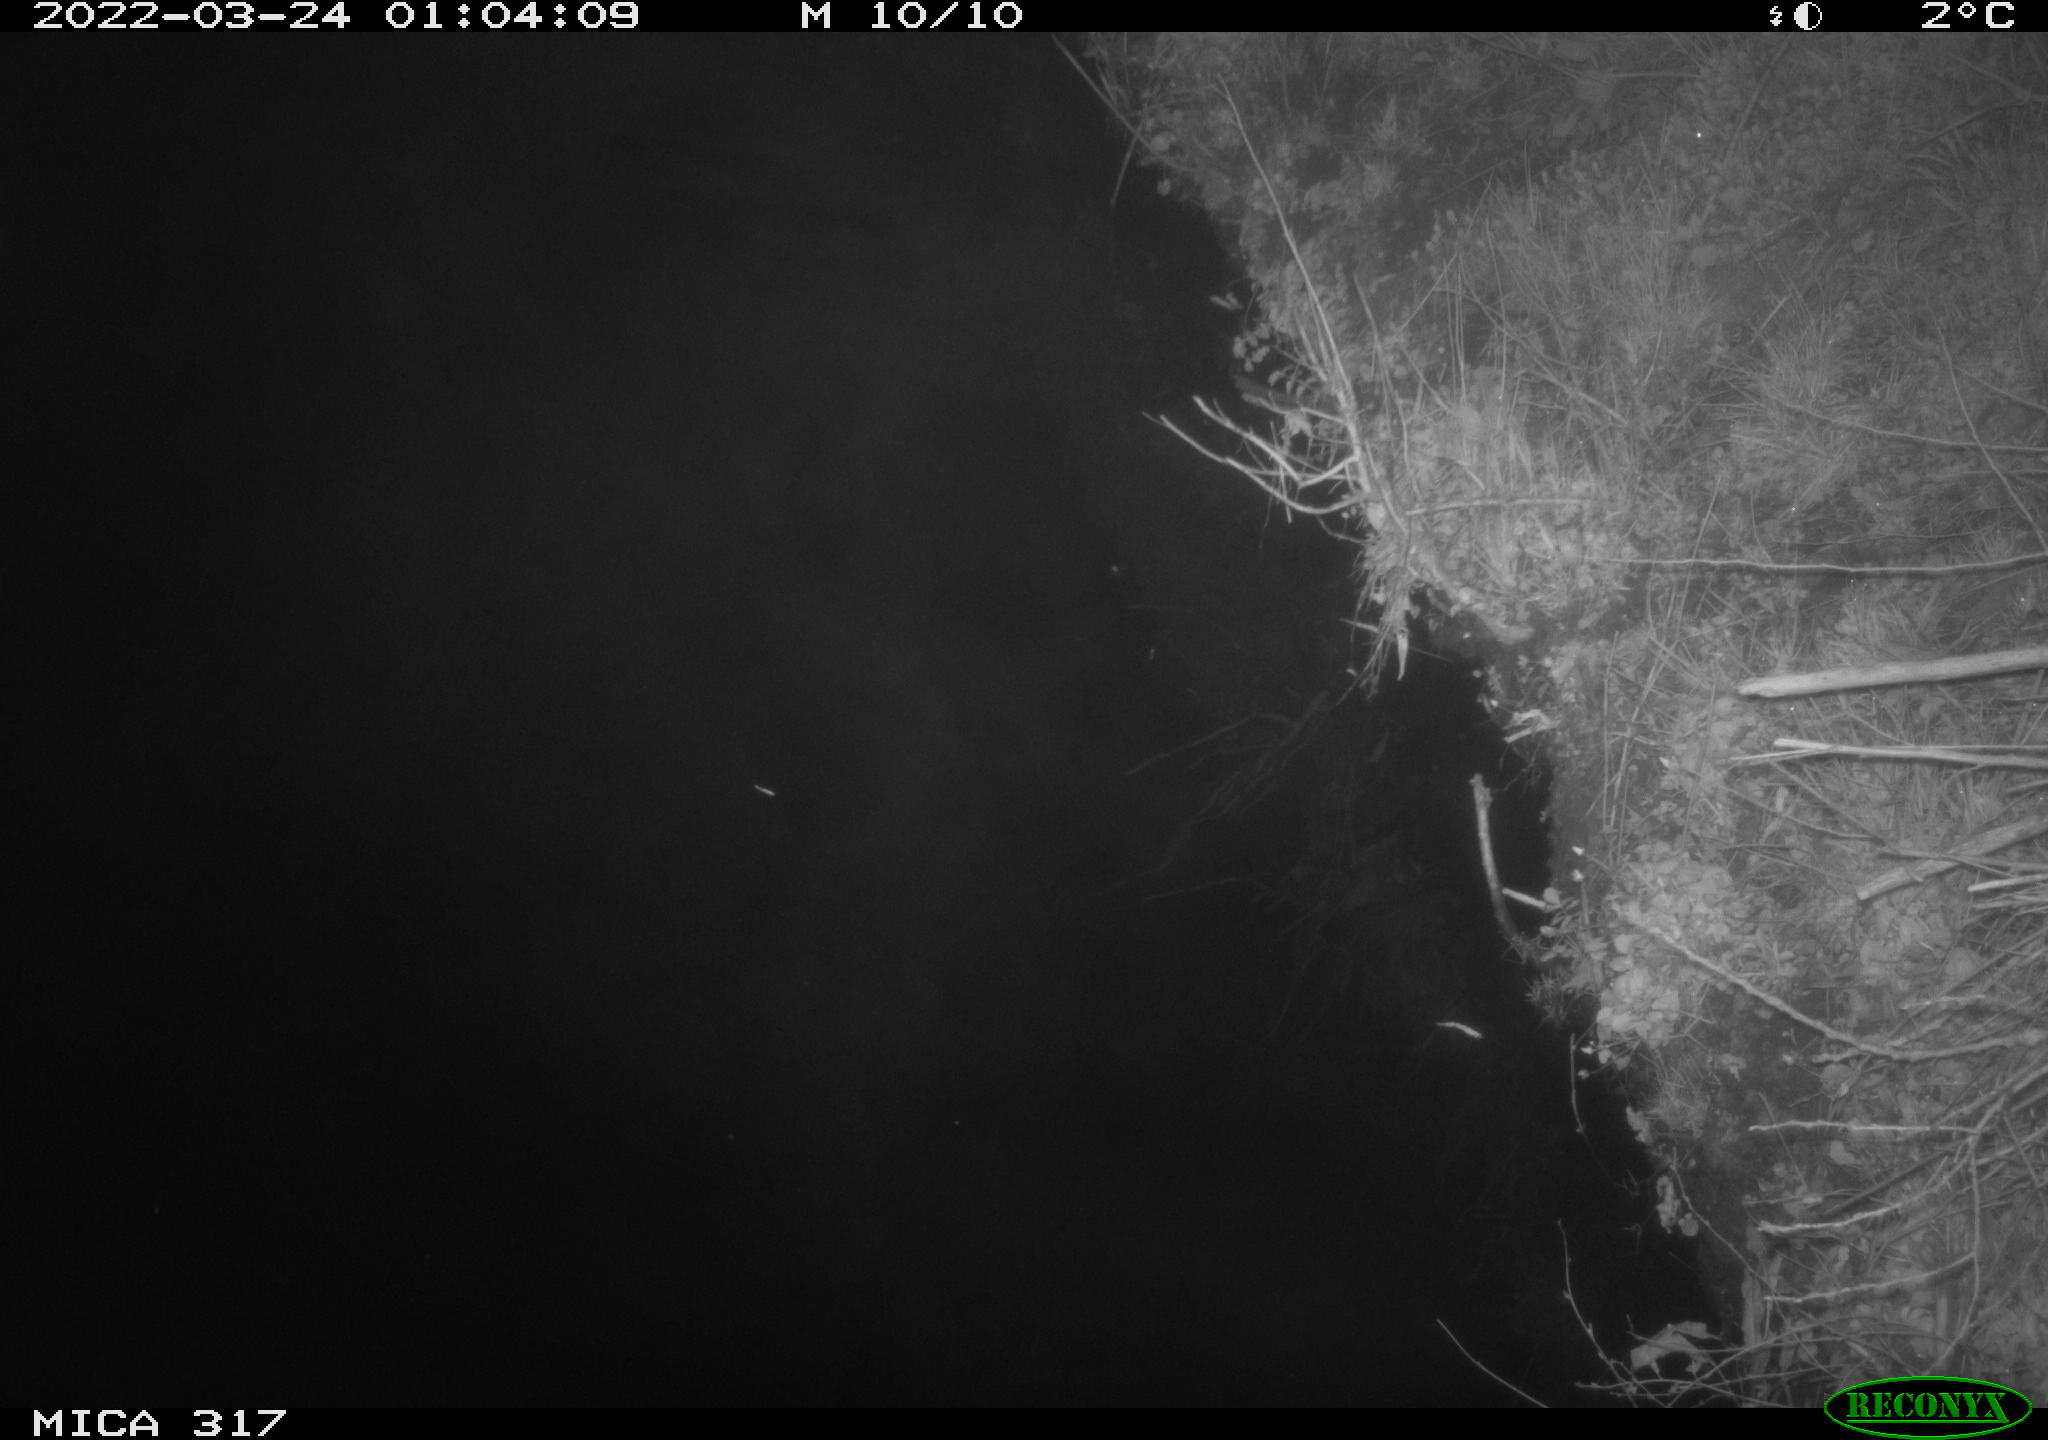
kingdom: Animalia
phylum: Chordata
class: Aves
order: Anseriformes
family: Anatidae
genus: Anas
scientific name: Anas platyrhynchos
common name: Mallard
